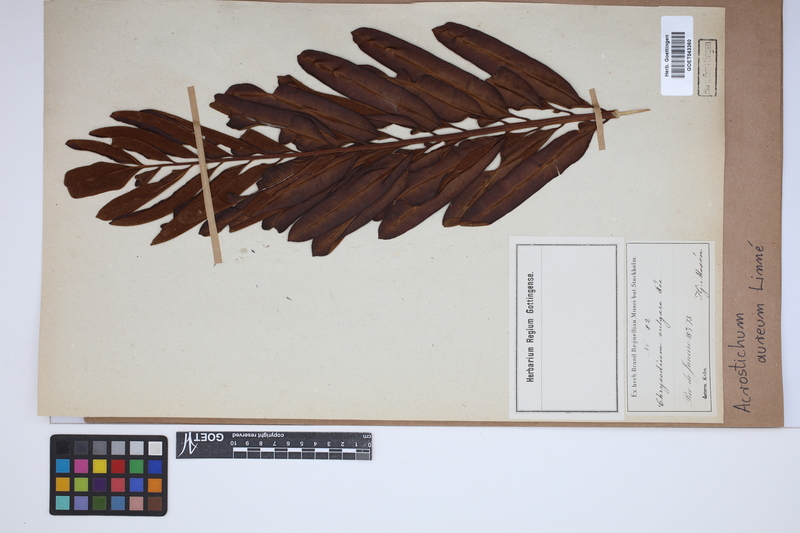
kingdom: Plantae
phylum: Tracheophyta
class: Polypodiopsida
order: Polypodiales
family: Pteridaceae
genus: Acrostichum
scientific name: Acrostichum aureum
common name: Leather fern
